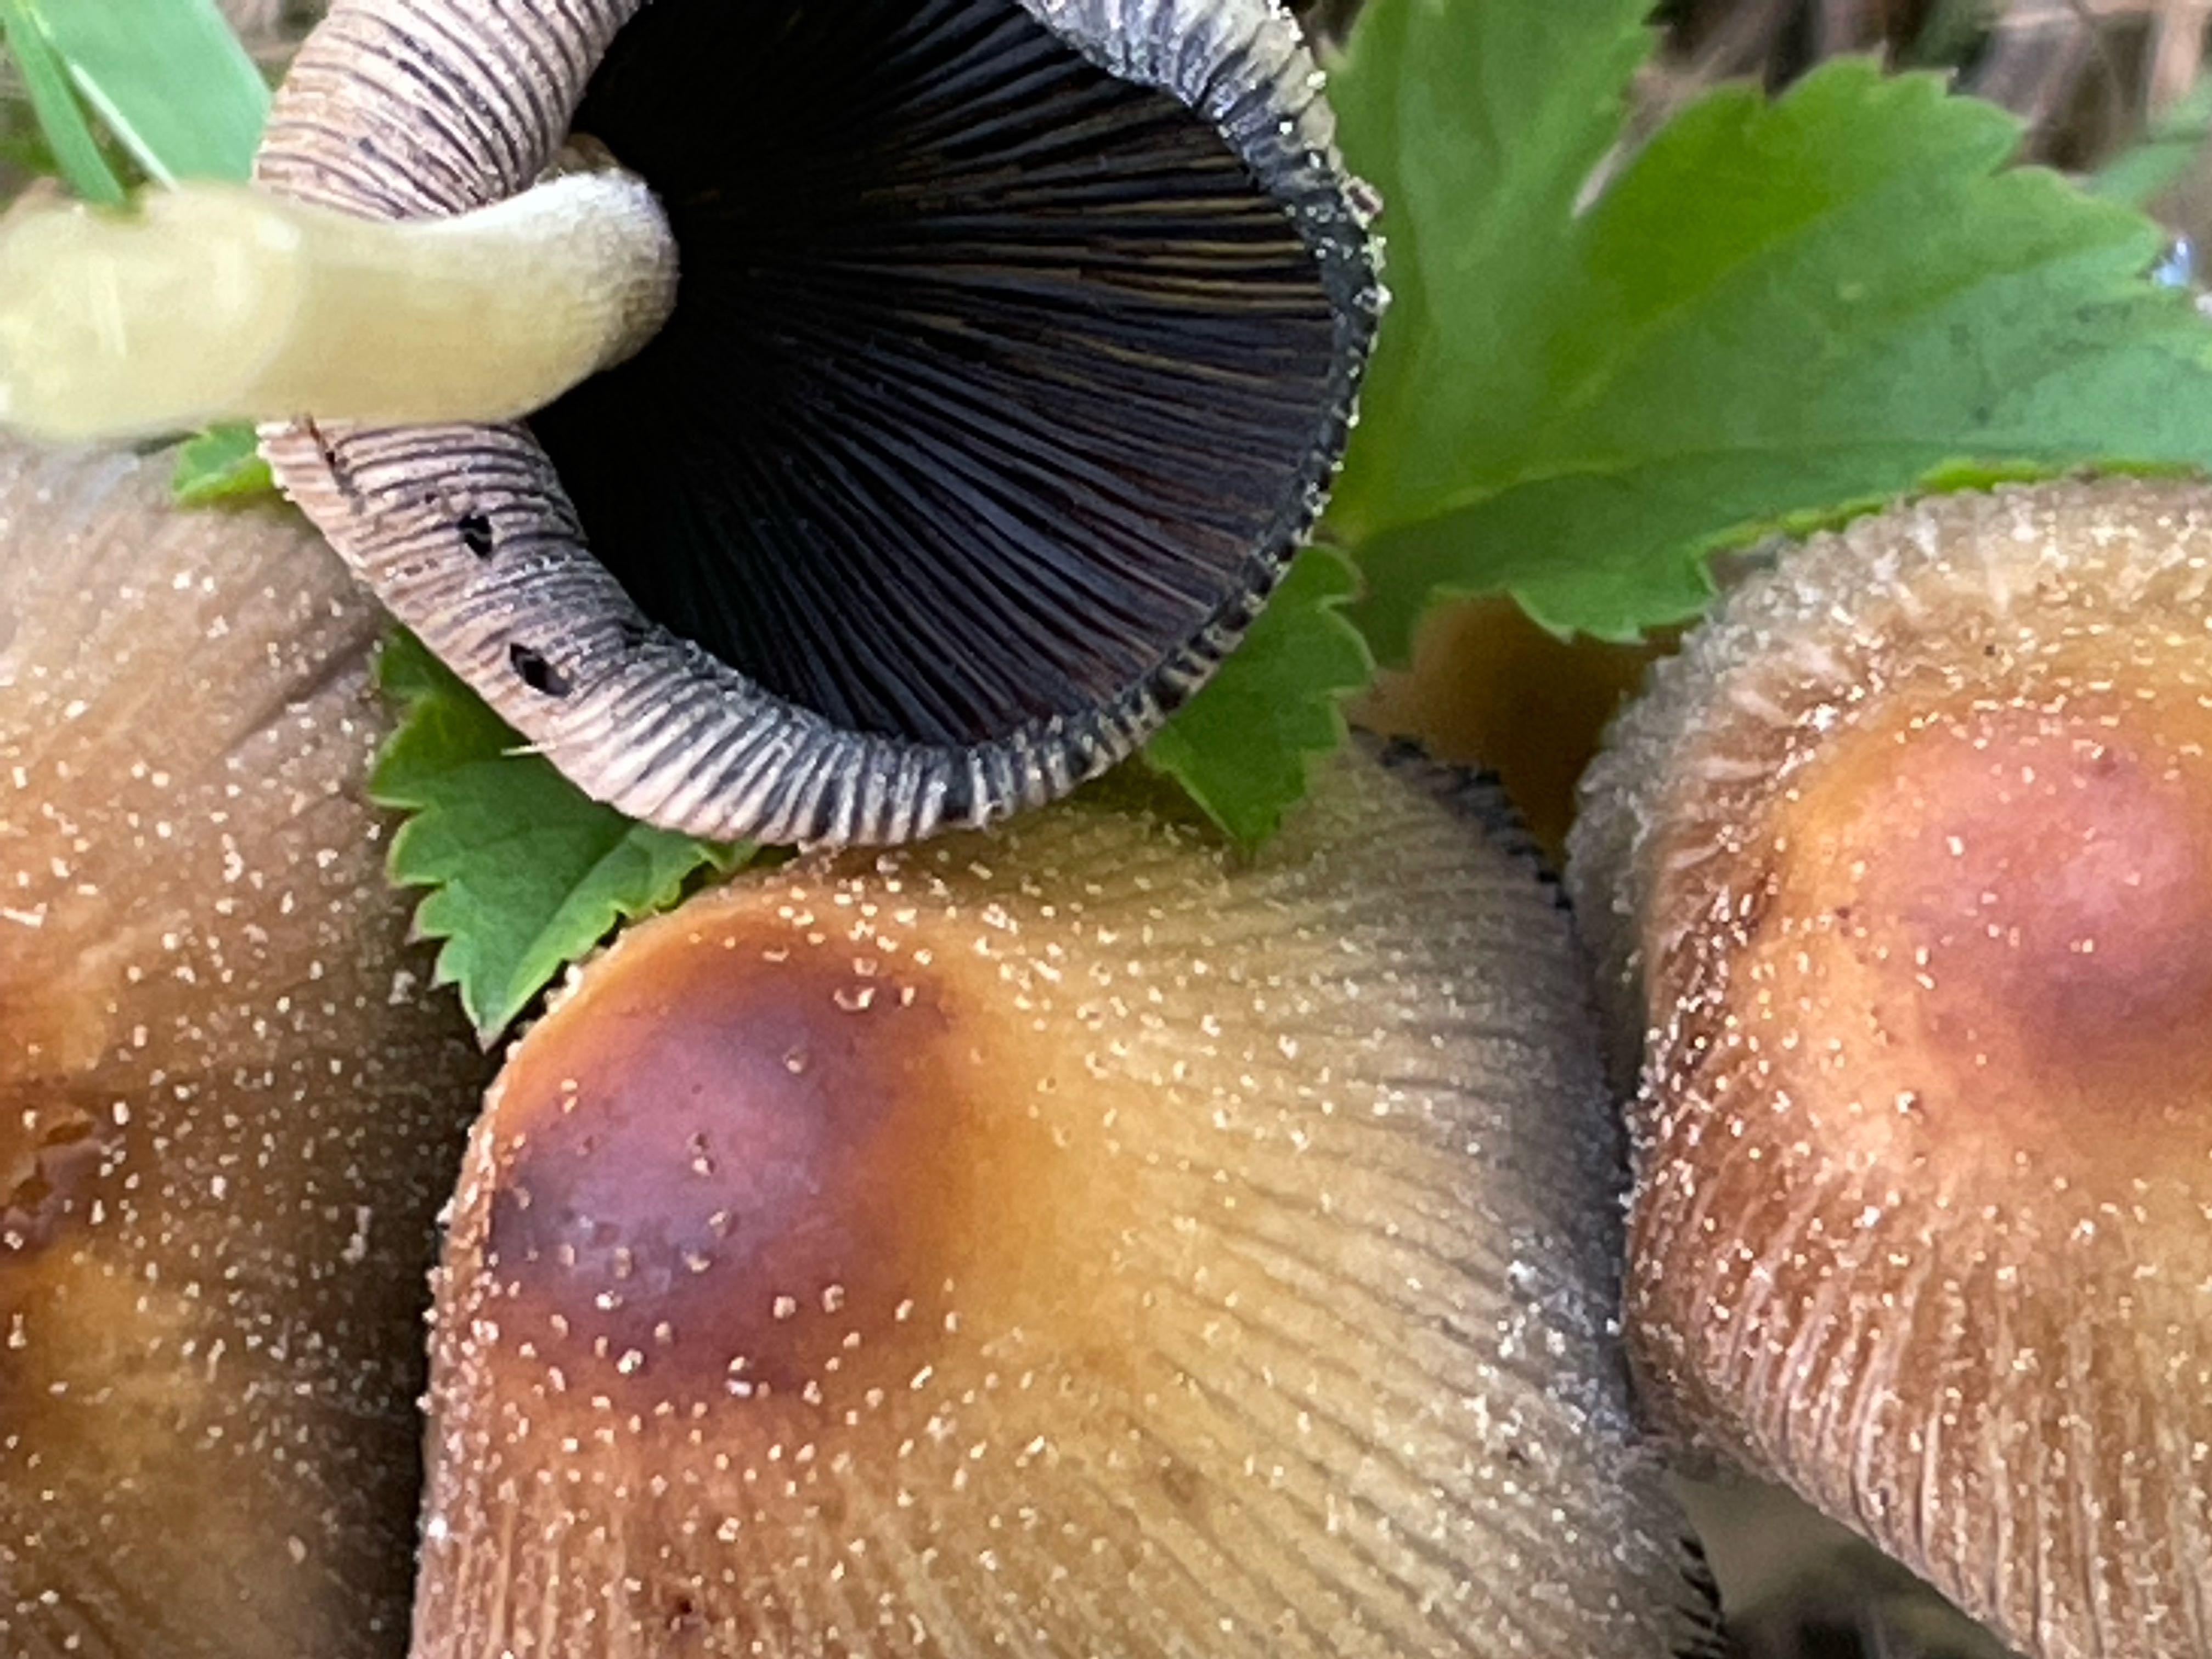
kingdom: Fungi
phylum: Basidiomycota
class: Agaricomycetes
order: Agaricales
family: Psathyrellaceae
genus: Coprinellus
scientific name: Coprinellus micaceus
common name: glimmer-blækhat
